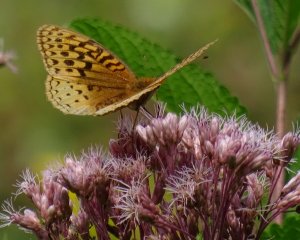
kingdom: Animalia
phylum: Arthropoda
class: Insecta
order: Lepidoptera
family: Nymphalidae
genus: Speyeria
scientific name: Speyeria cybele
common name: Great Spangled Fritillary
